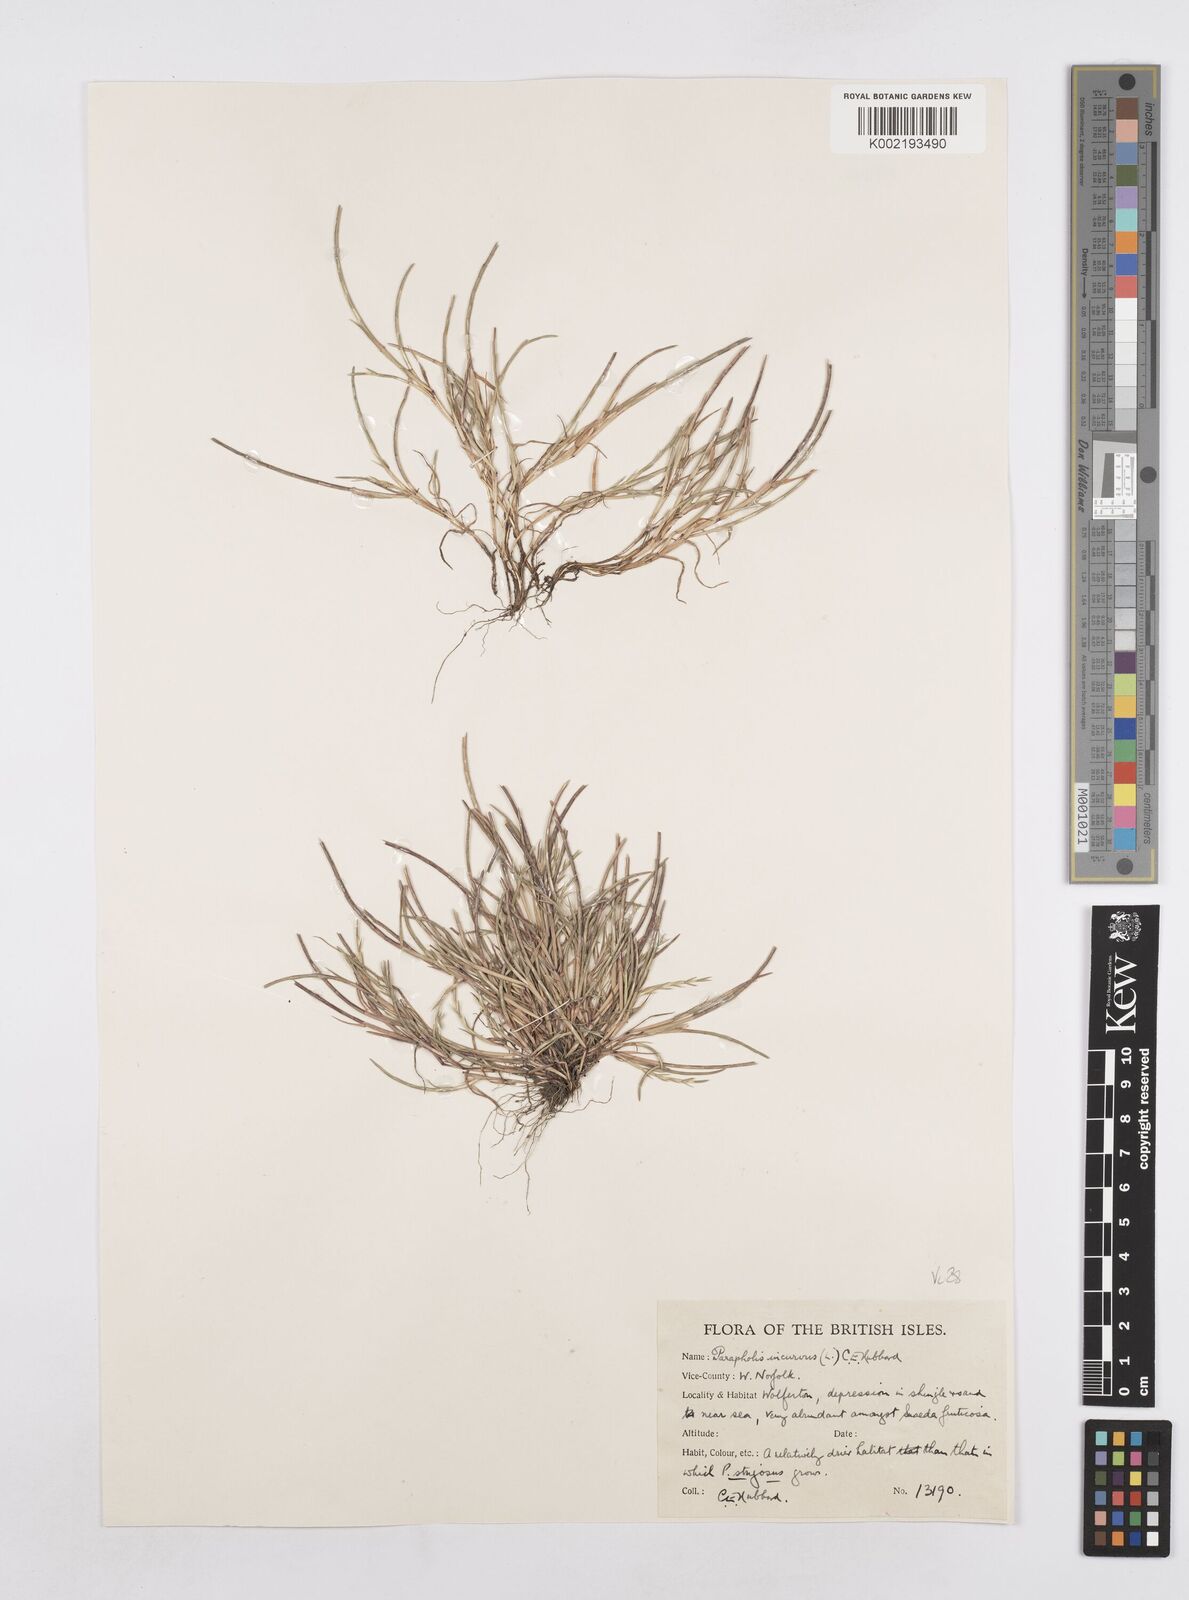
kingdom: Plantae
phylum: Tracheophyta
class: Liliopsida
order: Poales
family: Poaceae
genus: Parapholis
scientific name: Parapholis incurva
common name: Curved sicklegrass
